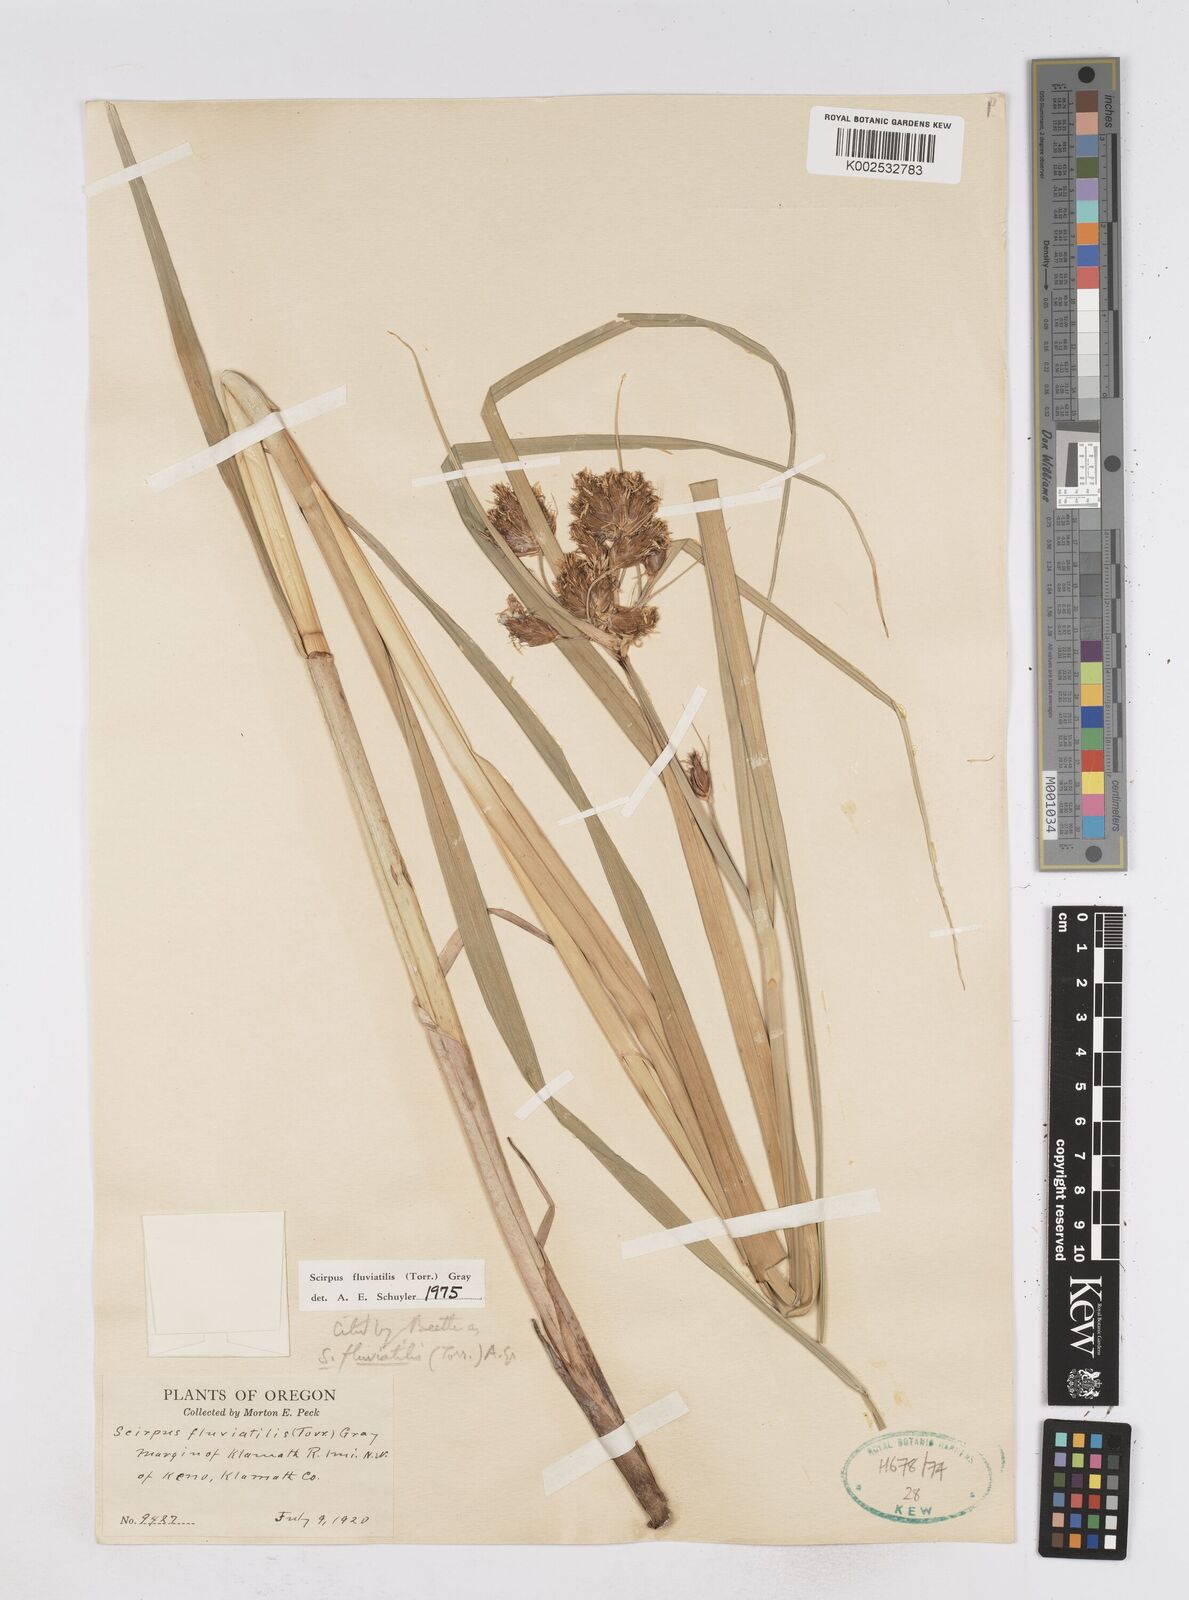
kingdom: Plantae
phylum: Tracheophyta
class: Liliopsida
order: Poales
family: Cyperaceae
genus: Bolboschoenus
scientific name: Bolboschoenus
